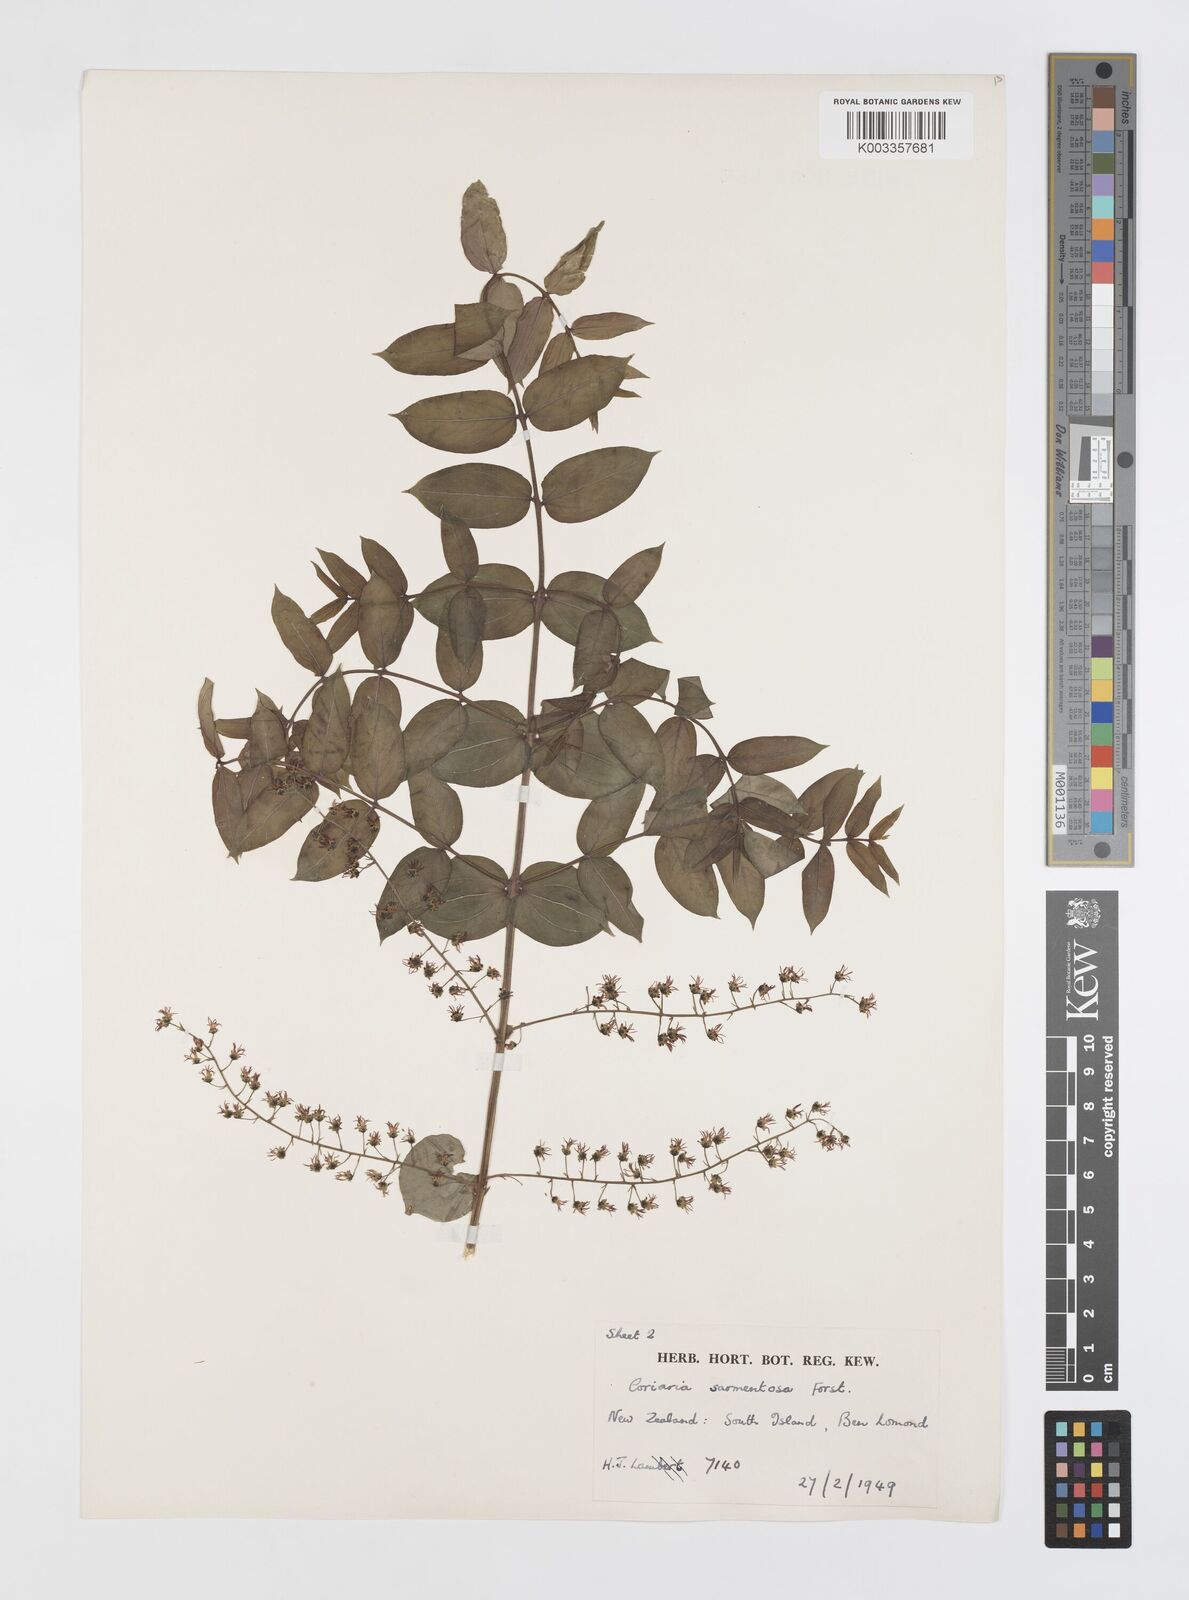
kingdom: Plantae
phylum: Tracheophyta
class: Magnoliopsida
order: Cucurbitales
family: Coriariaceae
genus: Coriaria
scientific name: Coriaria sarmentosa
